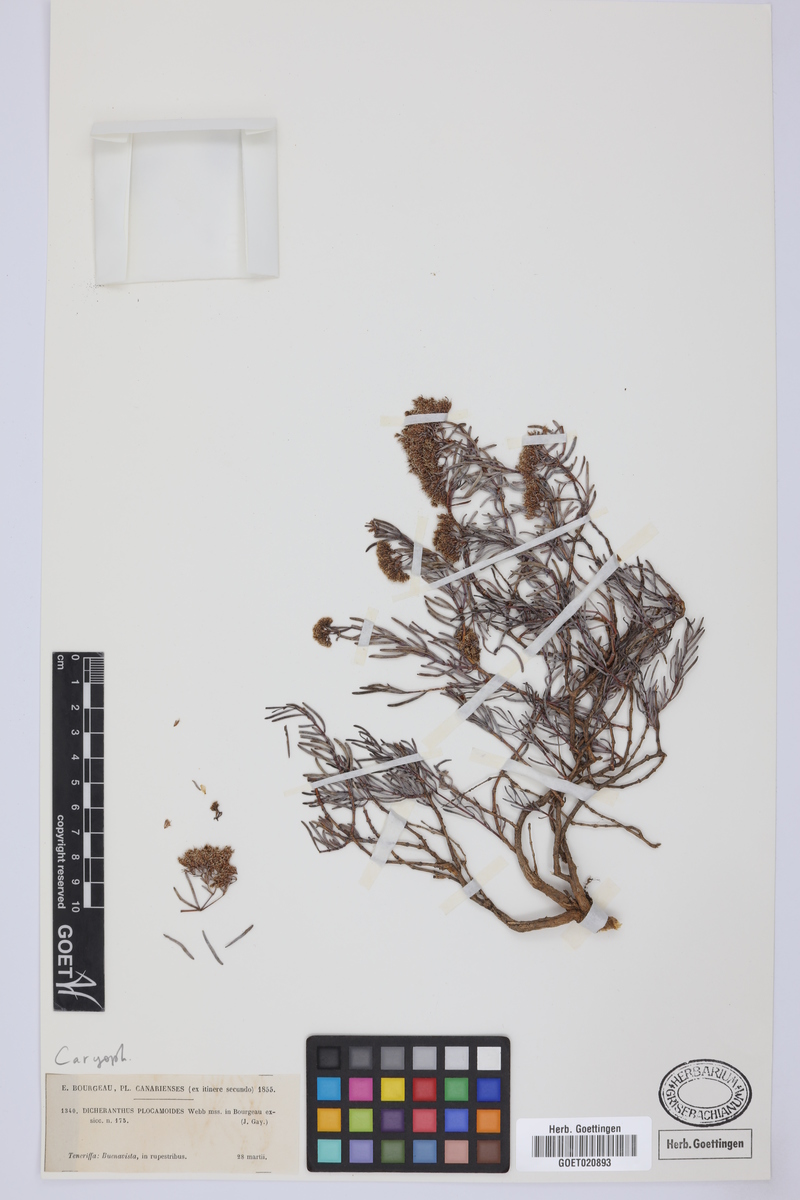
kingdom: Plantae
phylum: Tracheophyta
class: Magnoliopsida
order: Caryophyllales
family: Caryophyllaceae
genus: Dicheranthus
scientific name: Dicheranthus plocamoides
